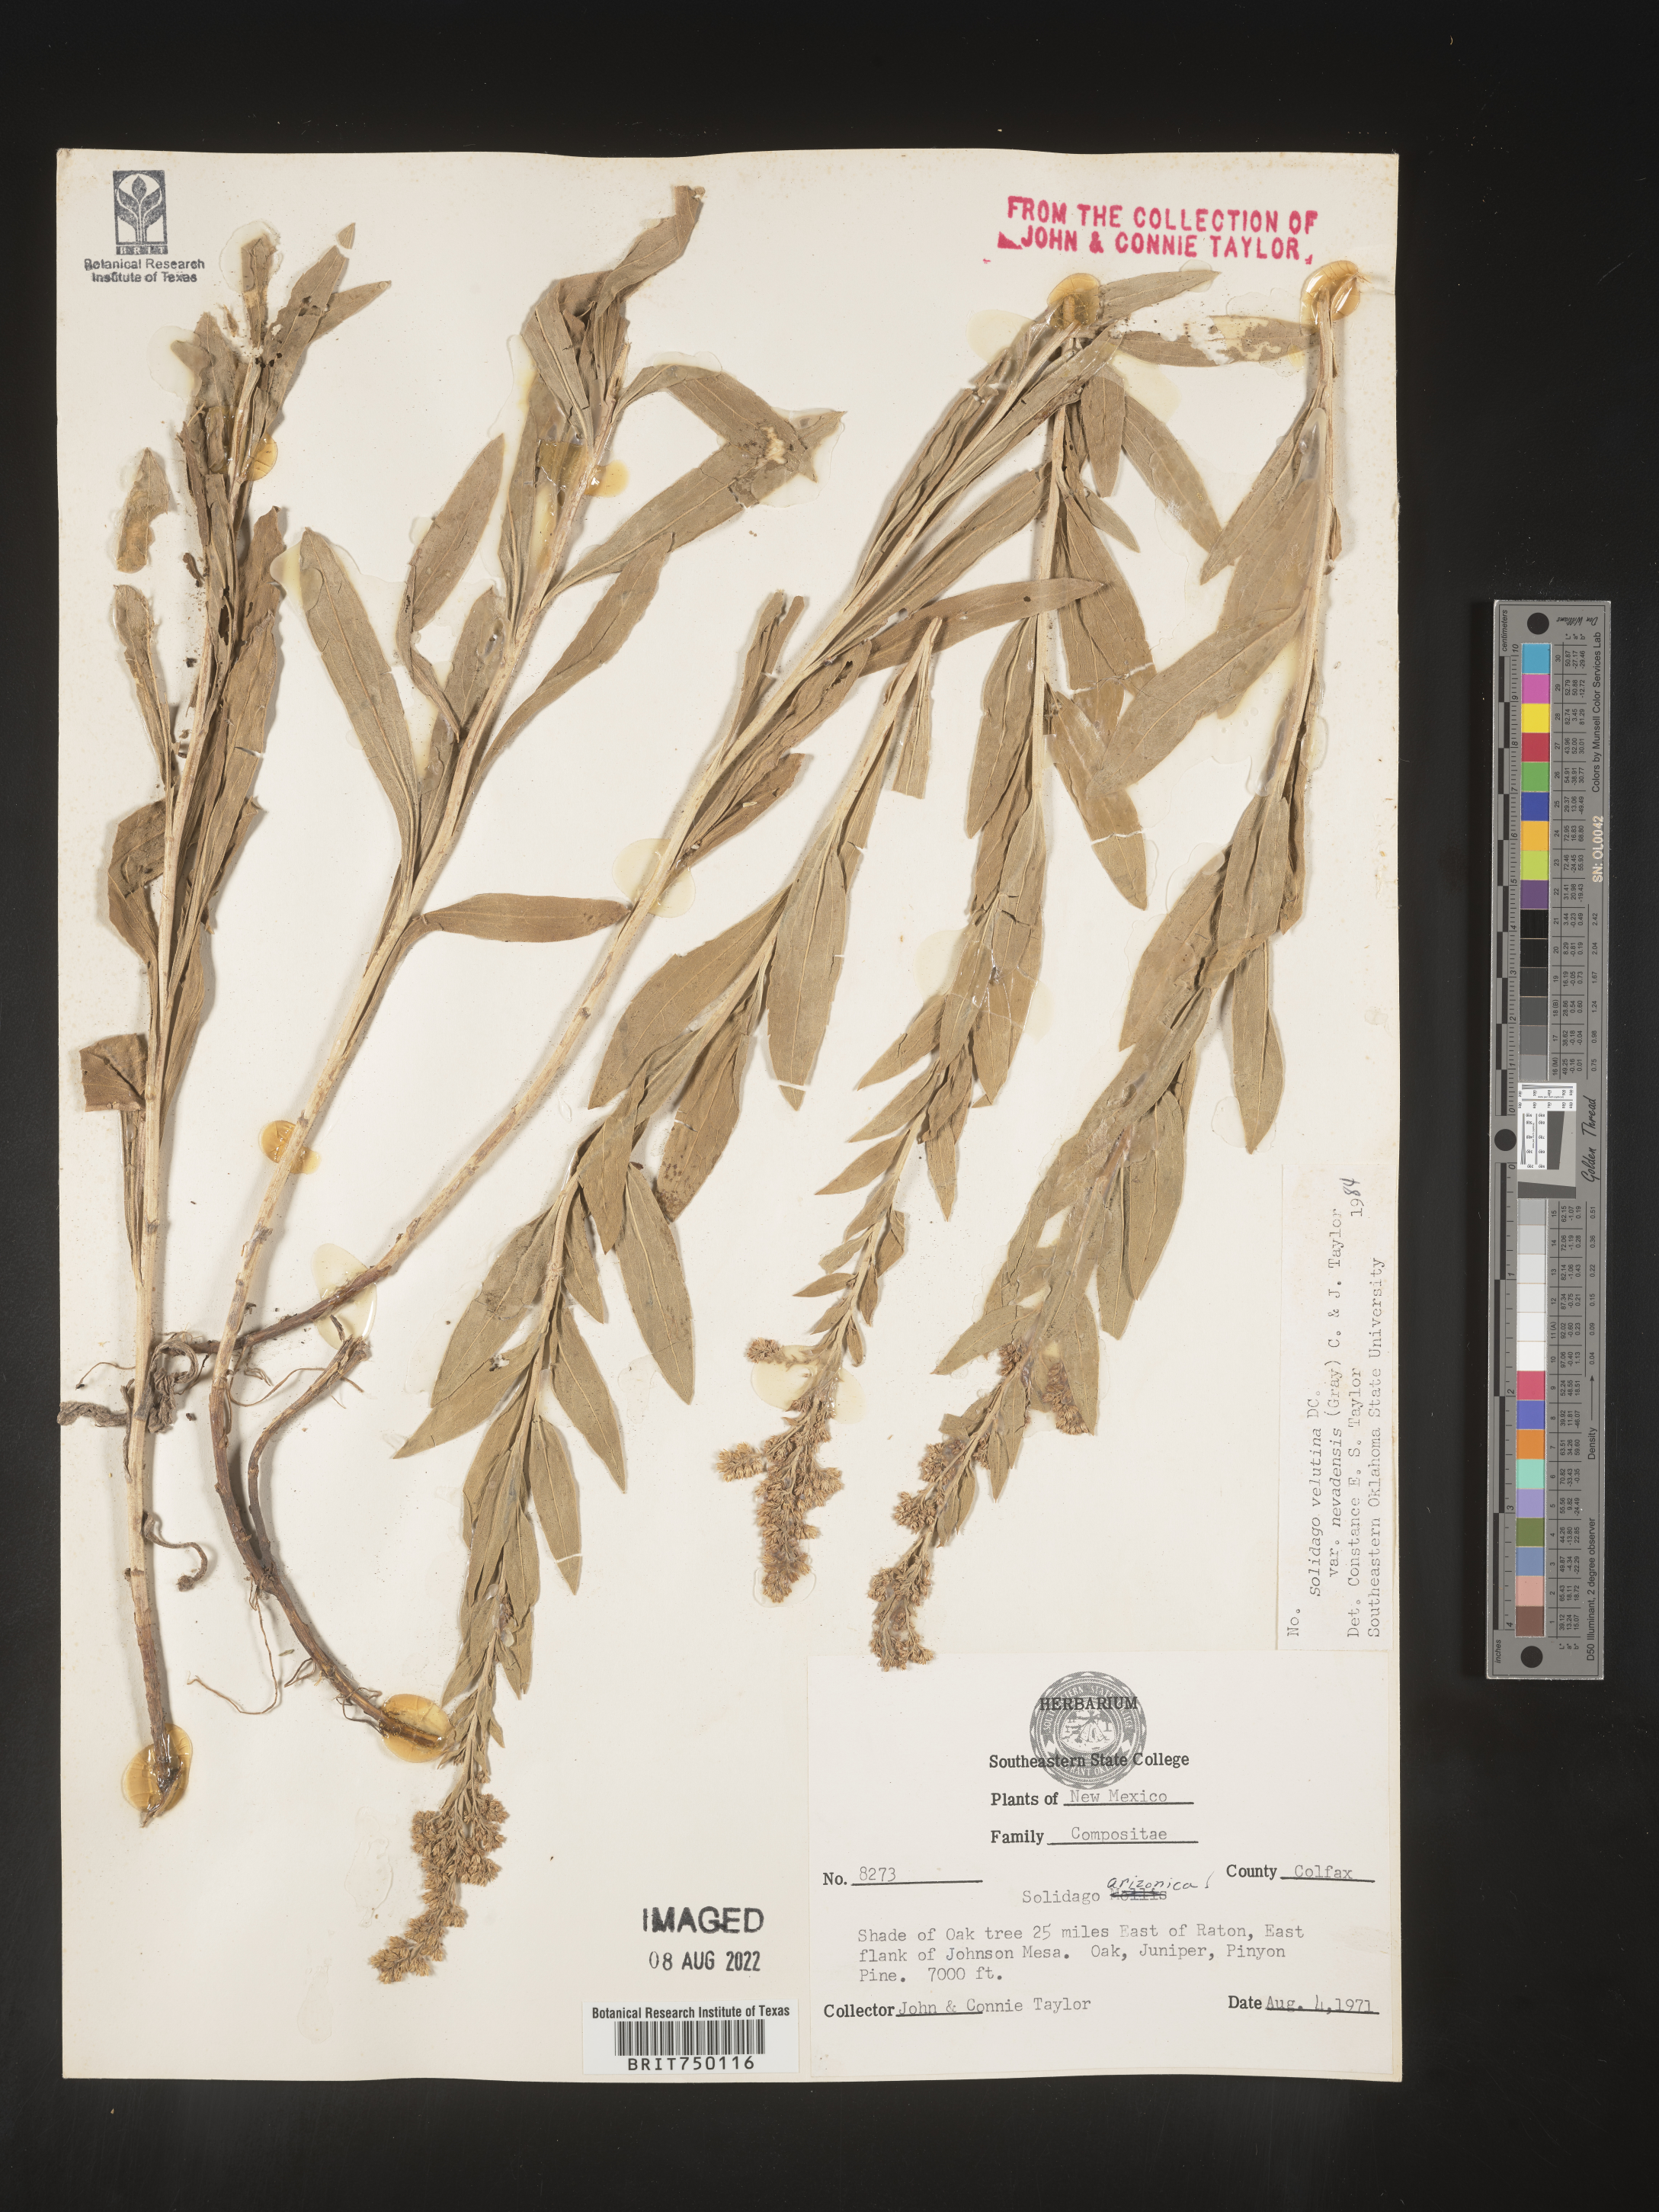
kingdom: Plantae
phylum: Tracheophyta
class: Magnoliopsida
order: Asterales
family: Asteraceae
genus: Solidago
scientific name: Solidago velutina
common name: Three-nerve goldenrod
